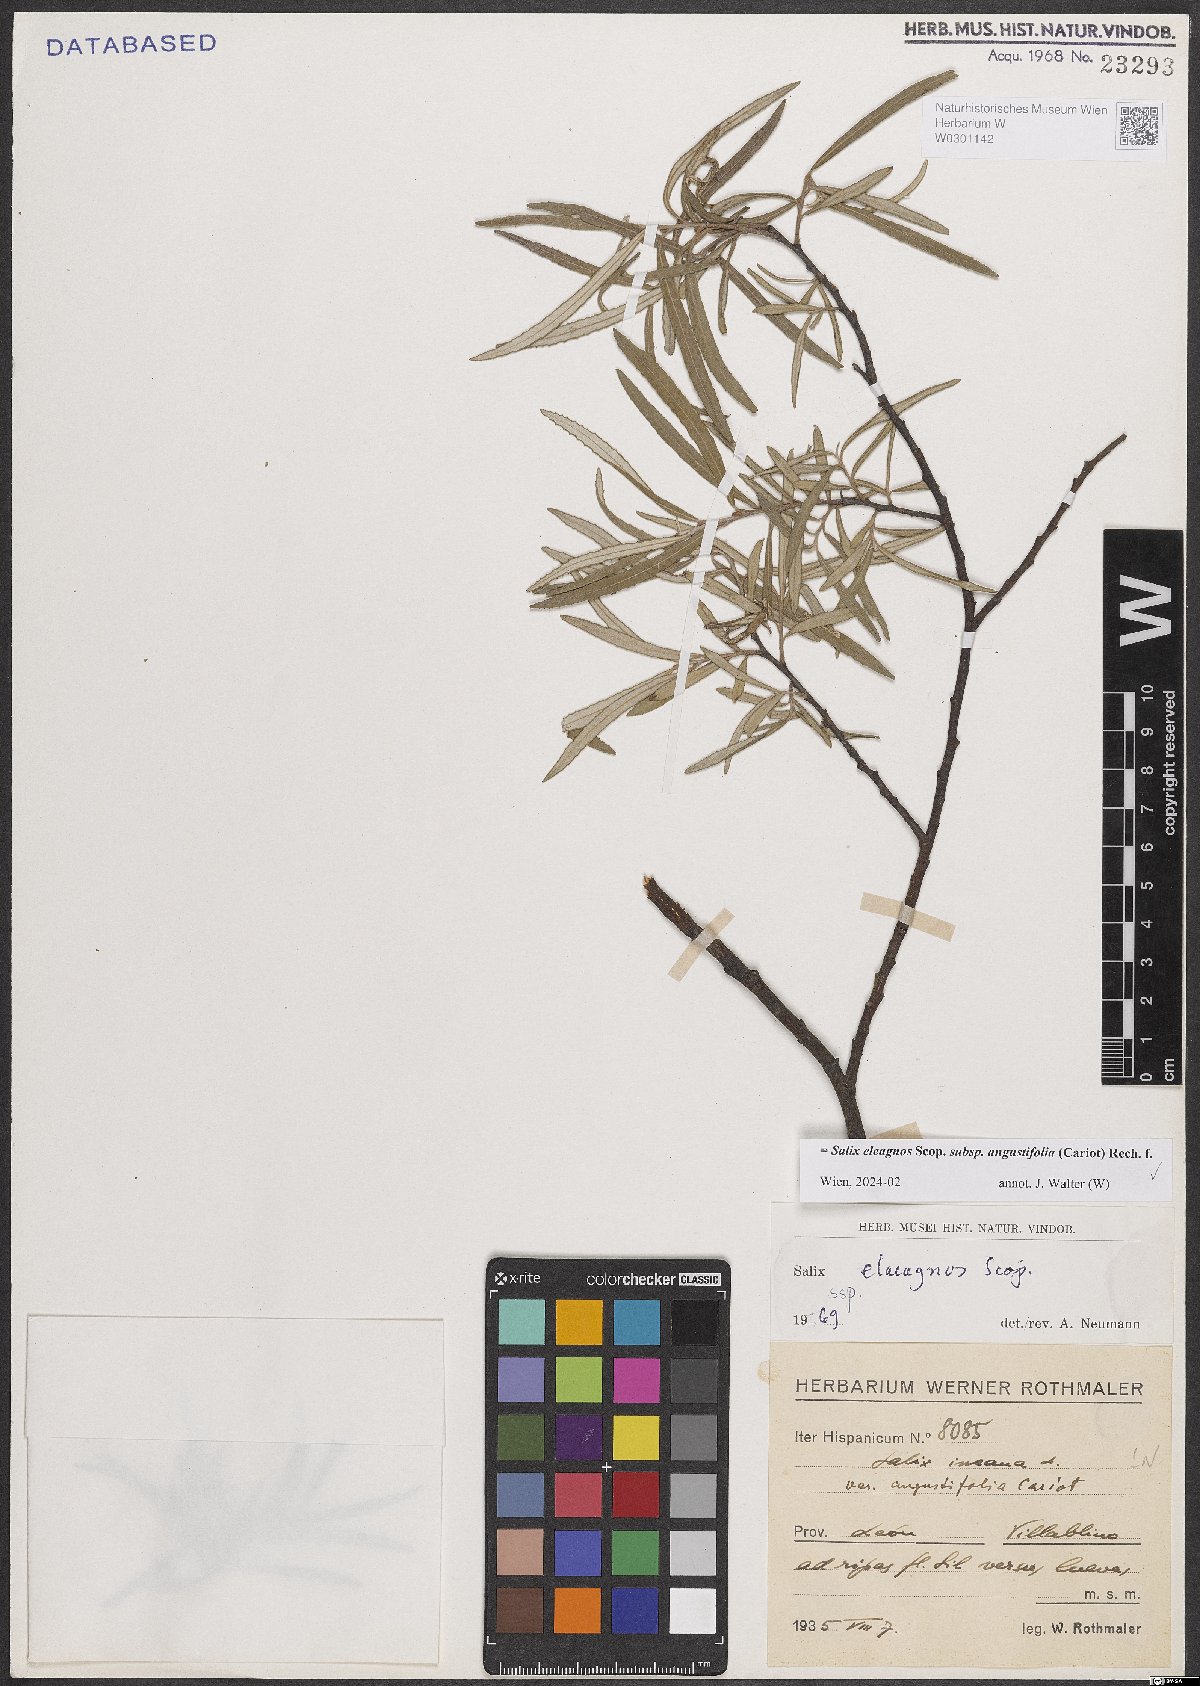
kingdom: Plantae
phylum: Tracheophyta
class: Magnoliopsida
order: Malpighiales
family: Salicaceae
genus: Salix
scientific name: Salix eleagnos
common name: Elaeagnus willow
